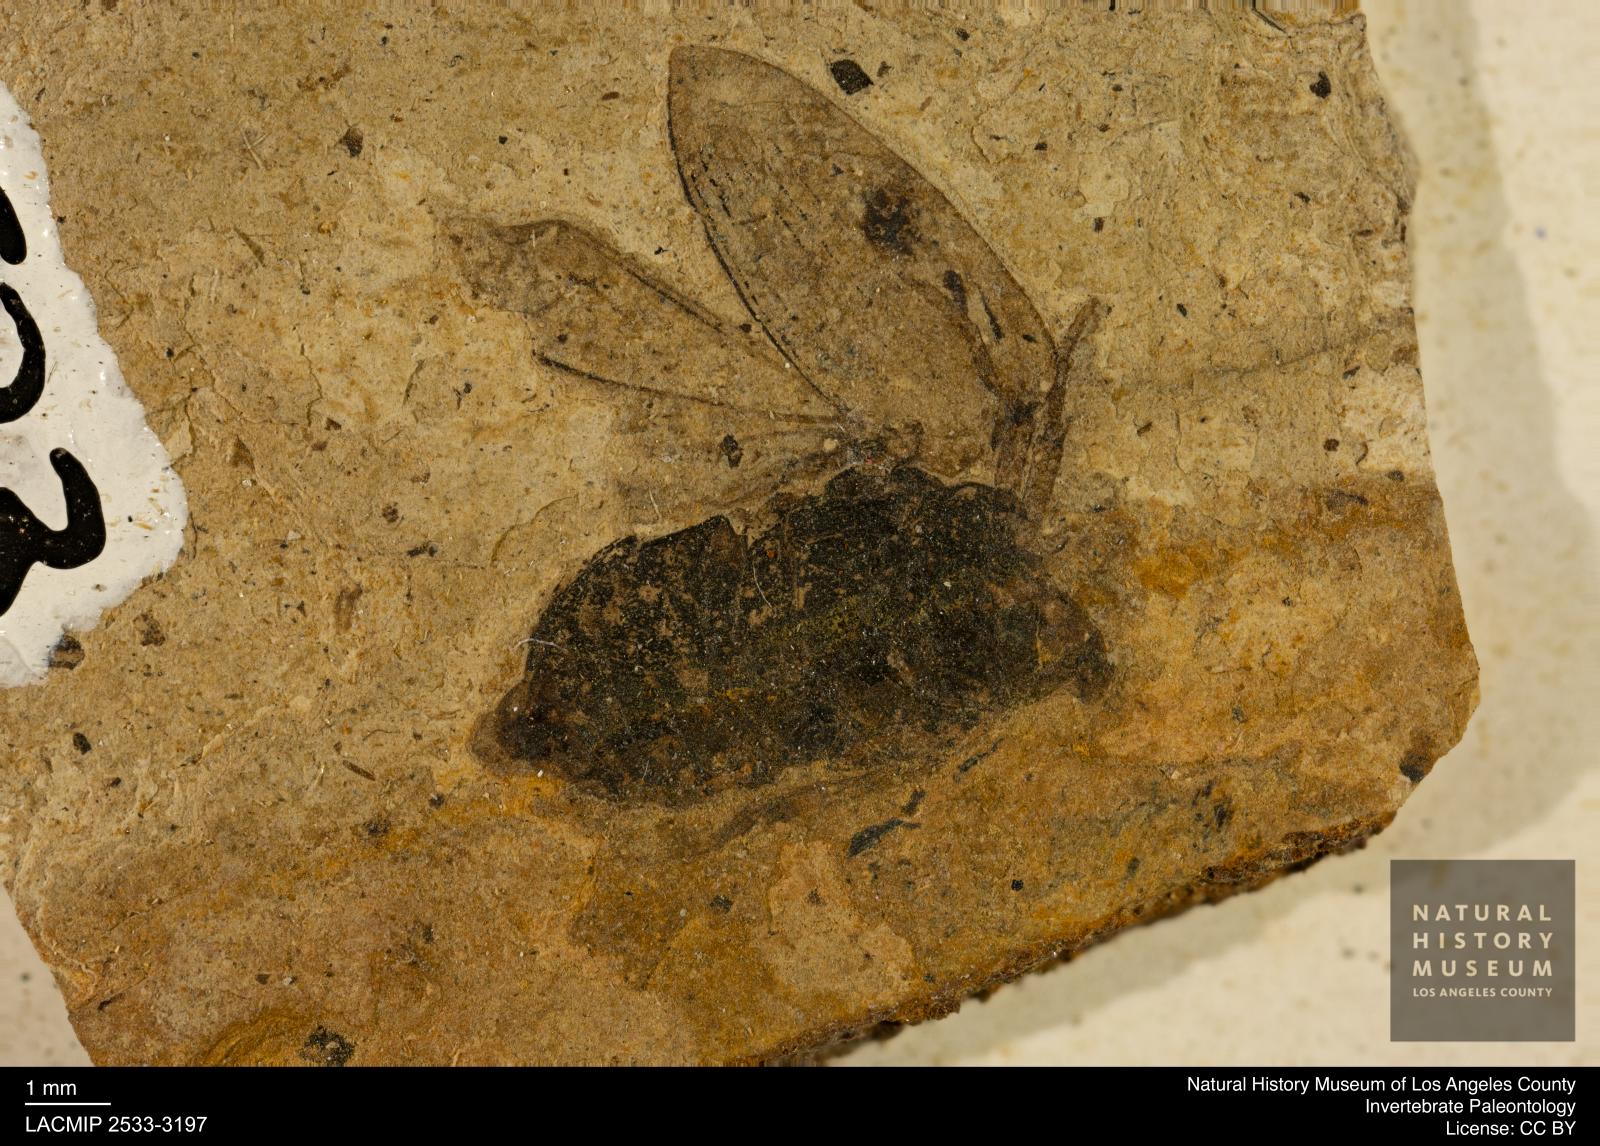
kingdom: Animalia
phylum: Arthropoda
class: Insecta
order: Coleoptera
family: Hydrophilidae
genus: Berosus
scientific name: Berosus morticinus
